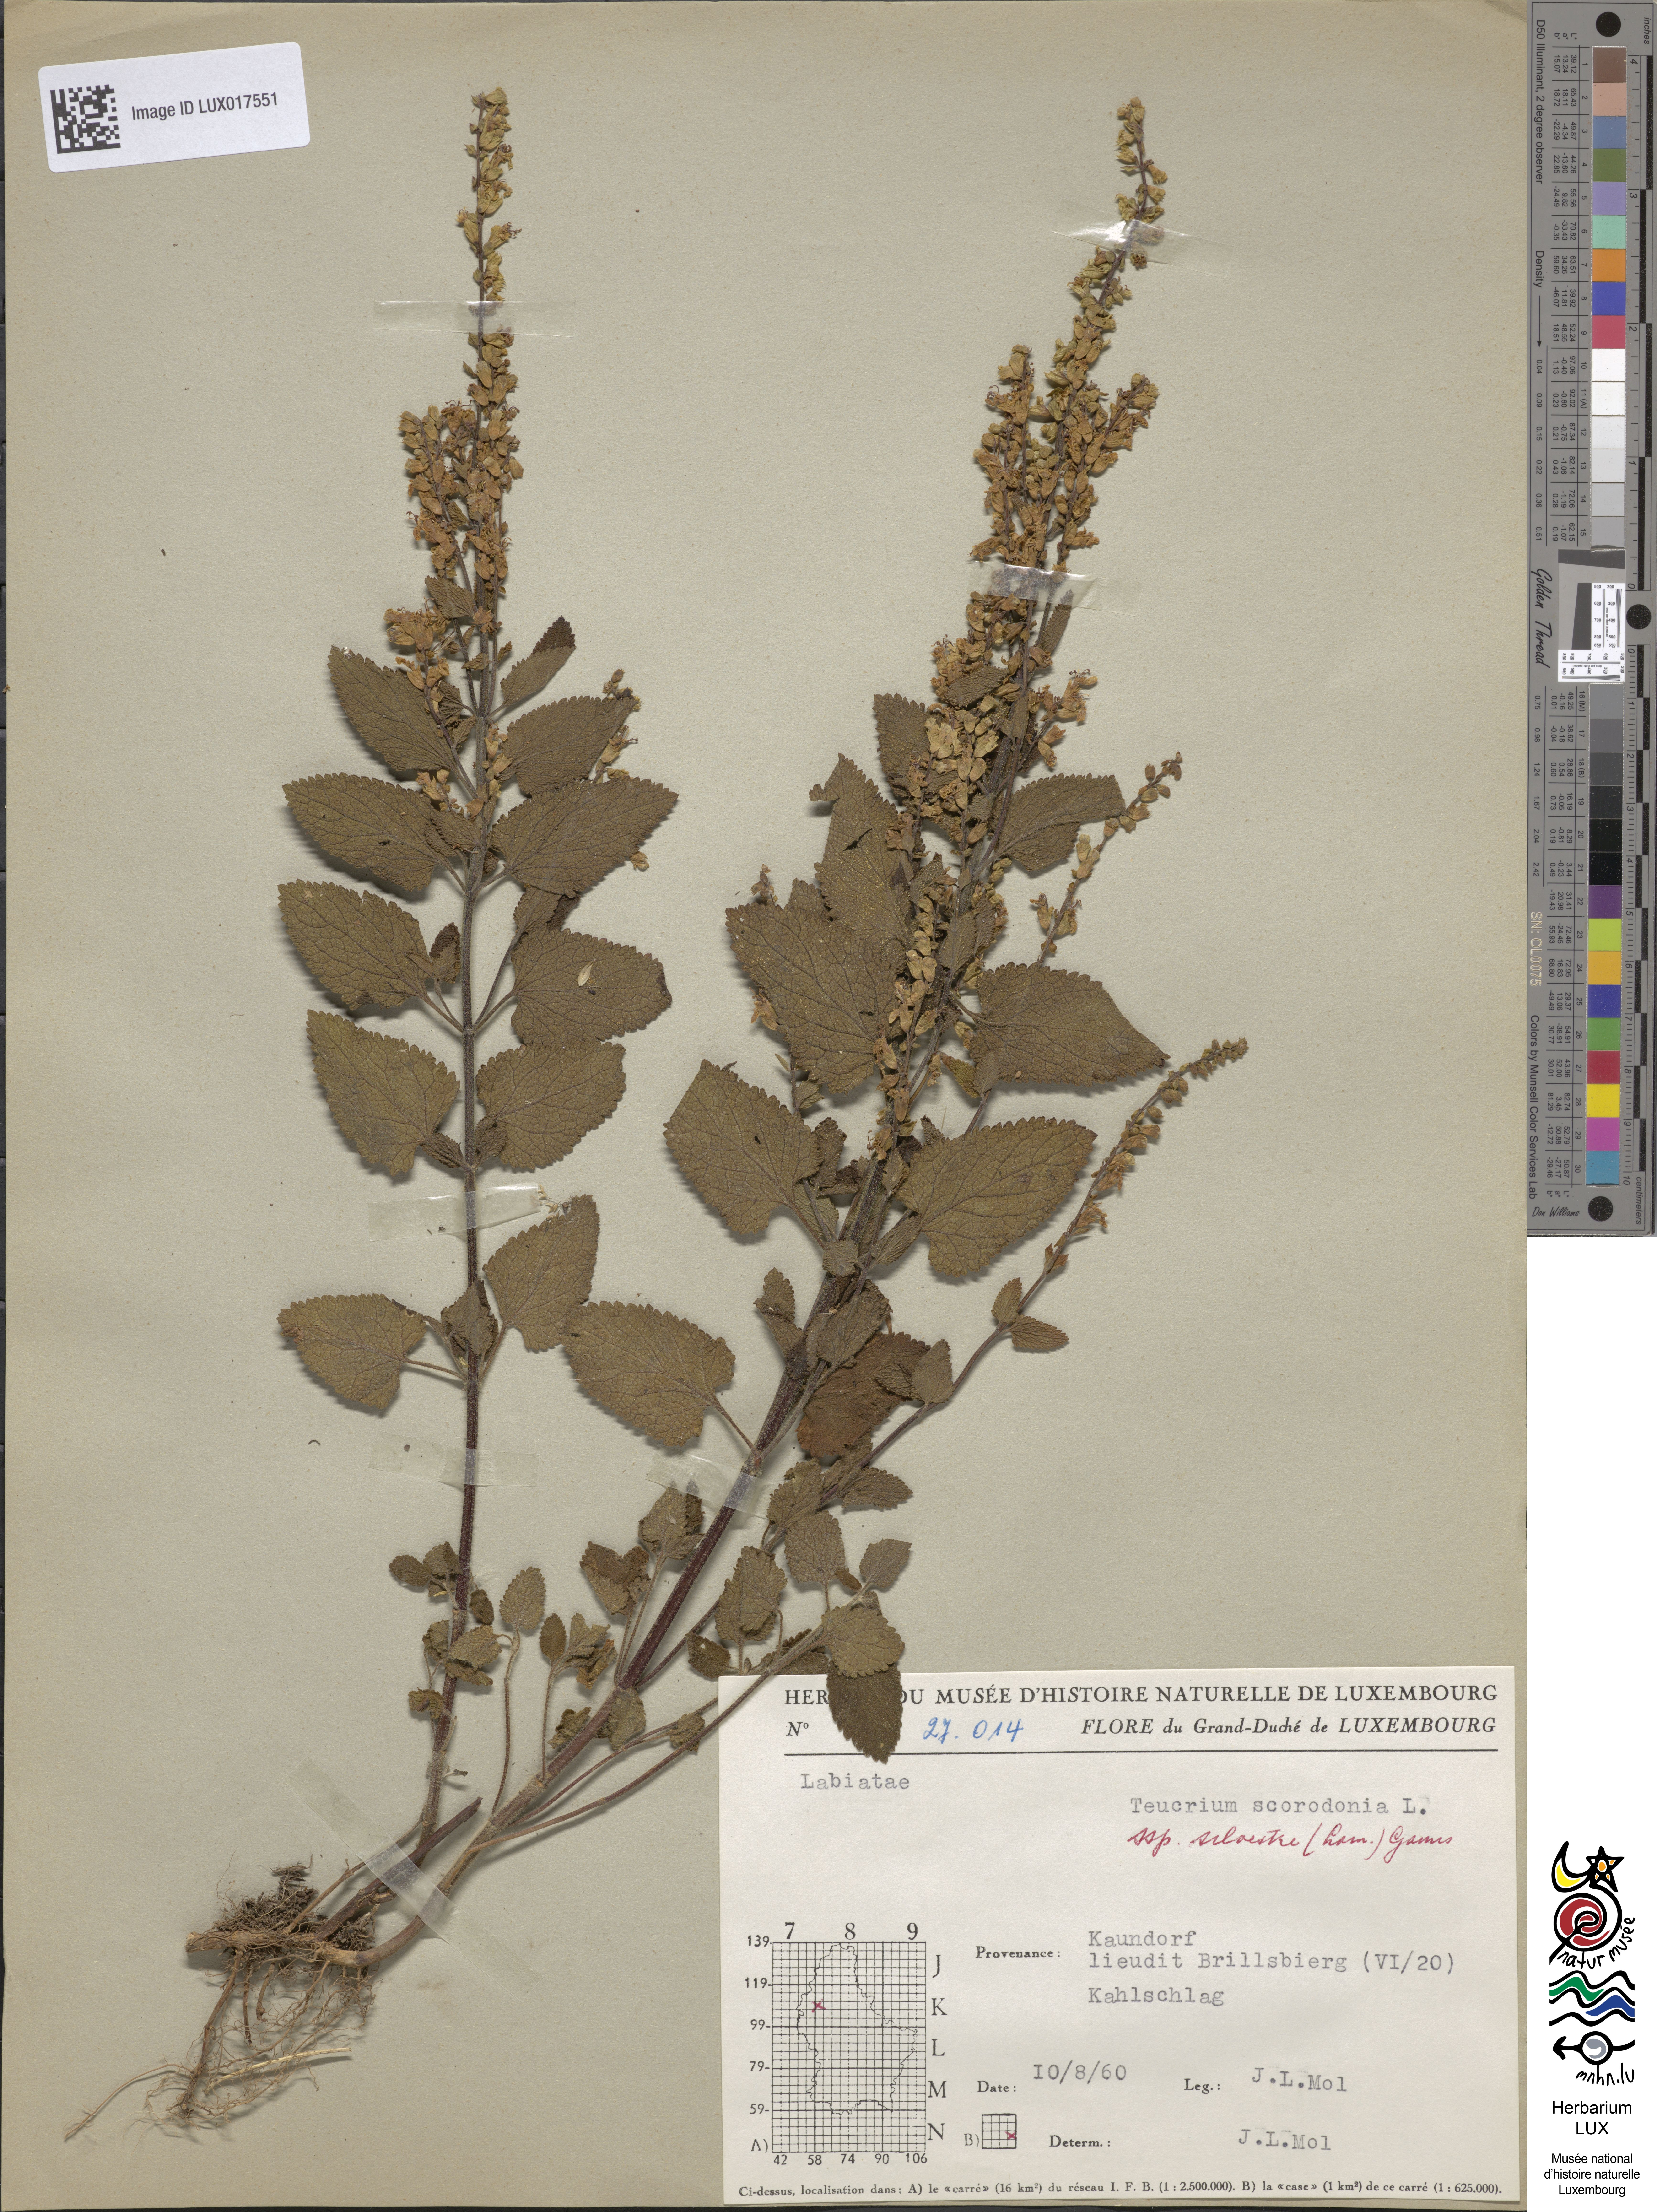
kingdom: Plantae
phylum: Tracheophyta
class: Magnoliopsida
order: Lamiales
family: Lamiaceae
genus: Teucrium
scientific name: Teucrium scorodonia
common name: Woodland germander
